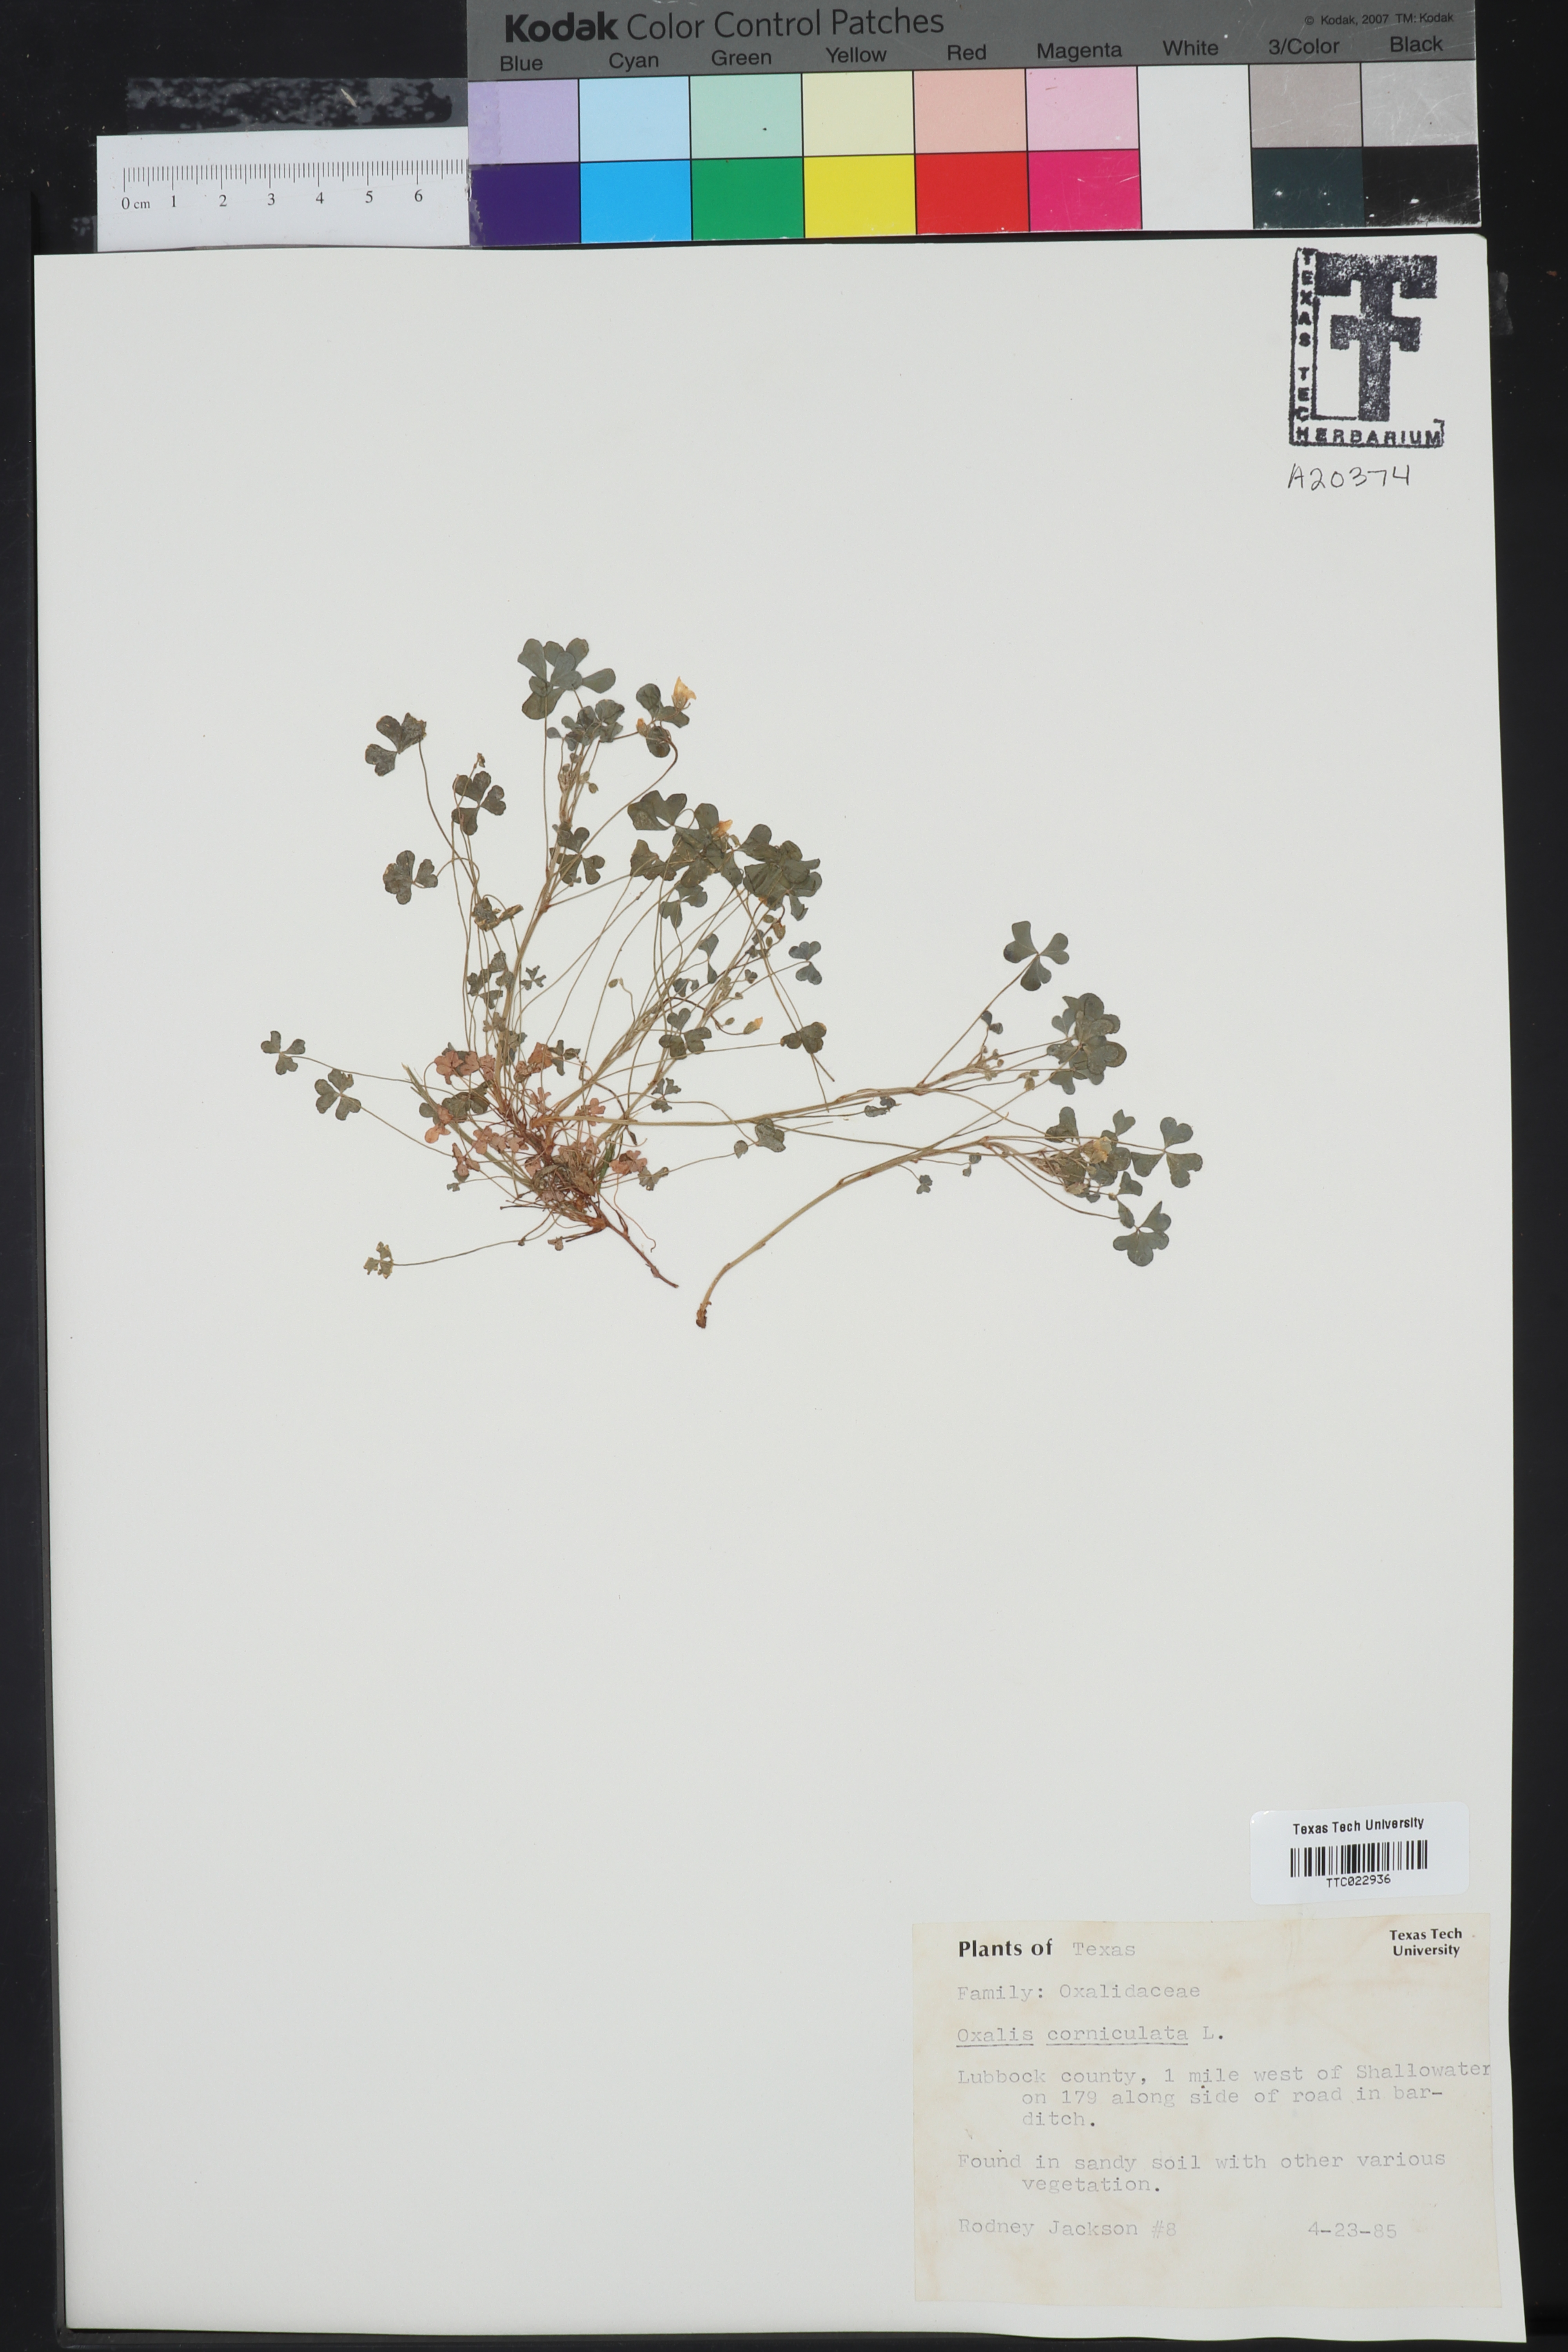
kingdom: Plantae
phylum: Tracheophyta
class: Magnoliopsida
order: Oxalidales
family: Oxalidaceae
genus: Oxalis
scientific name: Oxalis corniculata
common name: Procumbent yellow-sorrel
